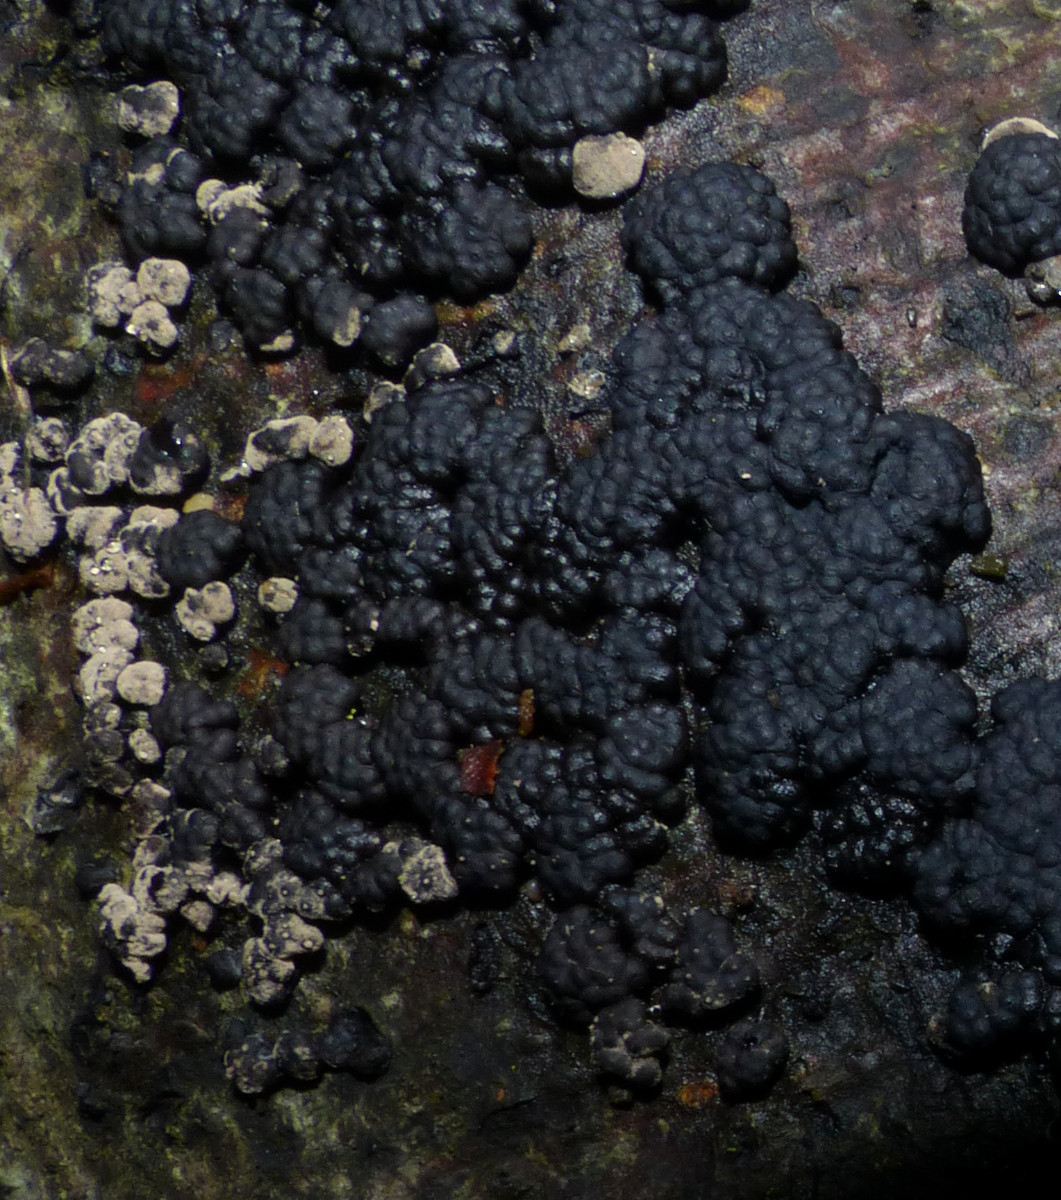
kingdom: Fungi
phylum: Ascomycota
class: Sordariomycetes
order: Xylariales
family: Hypoxylaceae
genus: Jackrogersella
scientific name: Jackrogersella cohaerens
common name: sammenflydende kulbær
